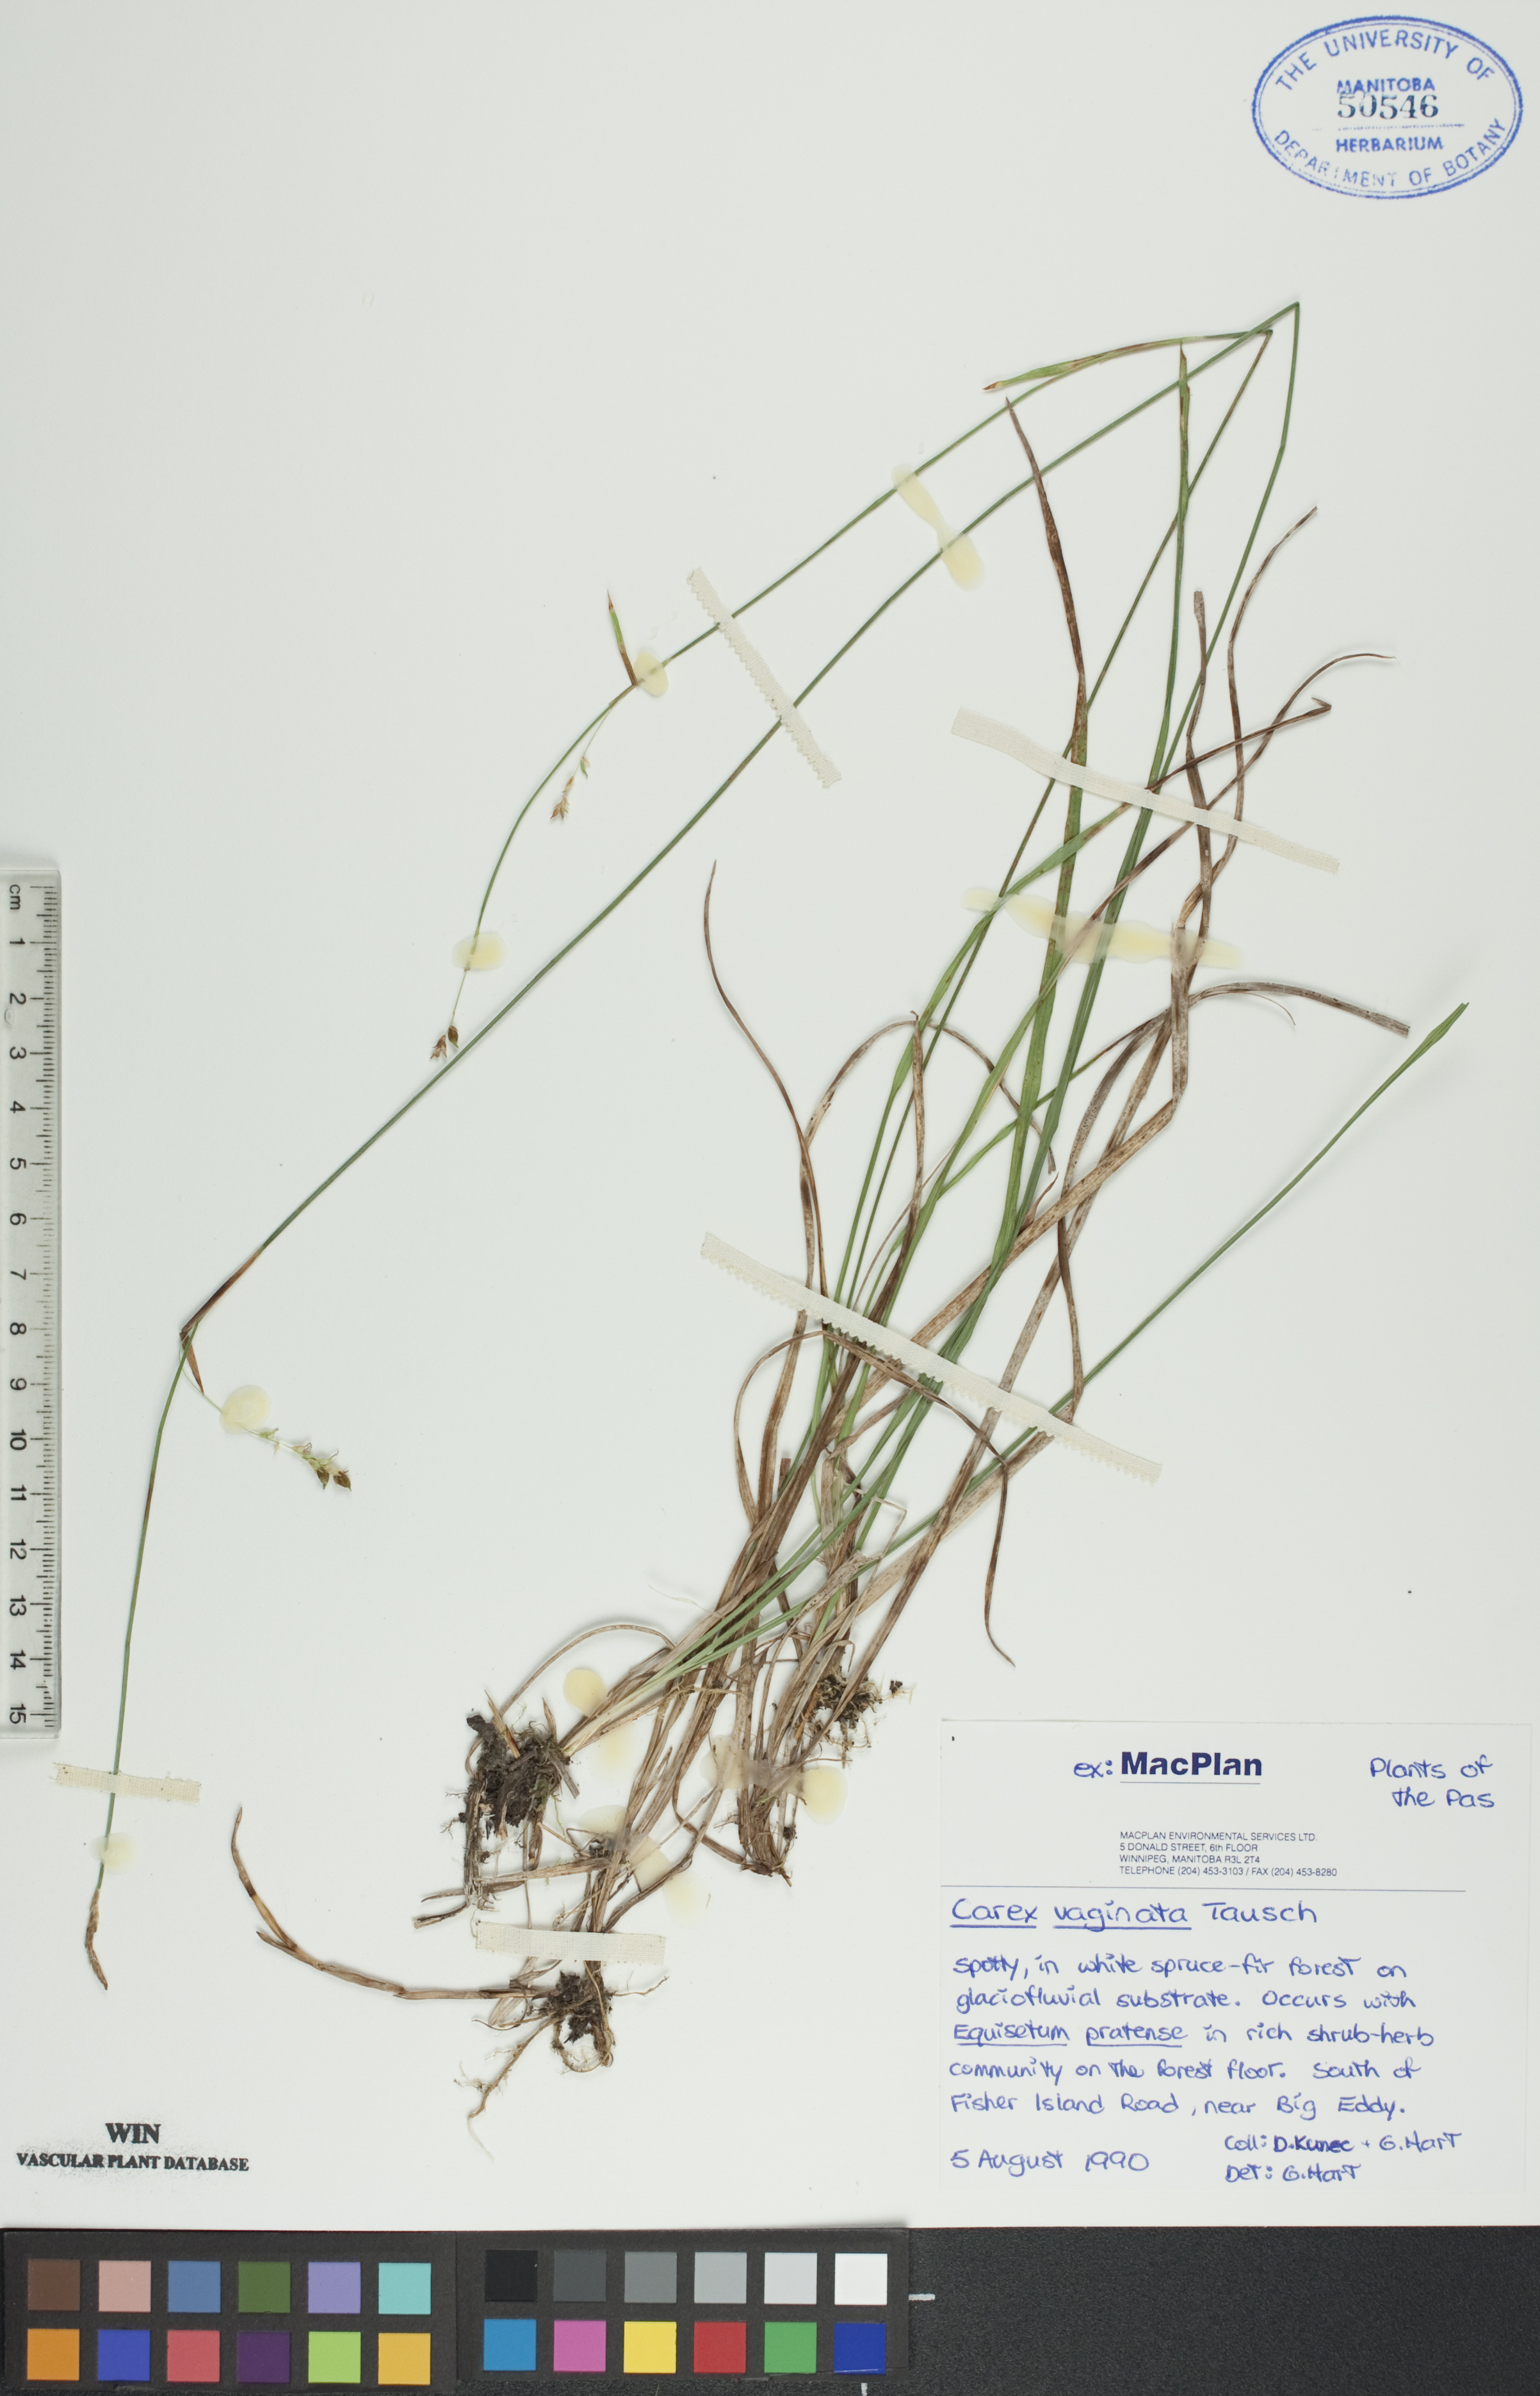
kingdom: Plantae
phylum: Tracheophyta
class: Liliopsida
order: Poales
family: Cyperaceae
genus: Carex
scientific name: Carex vaginata
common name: Sheathed sedge
